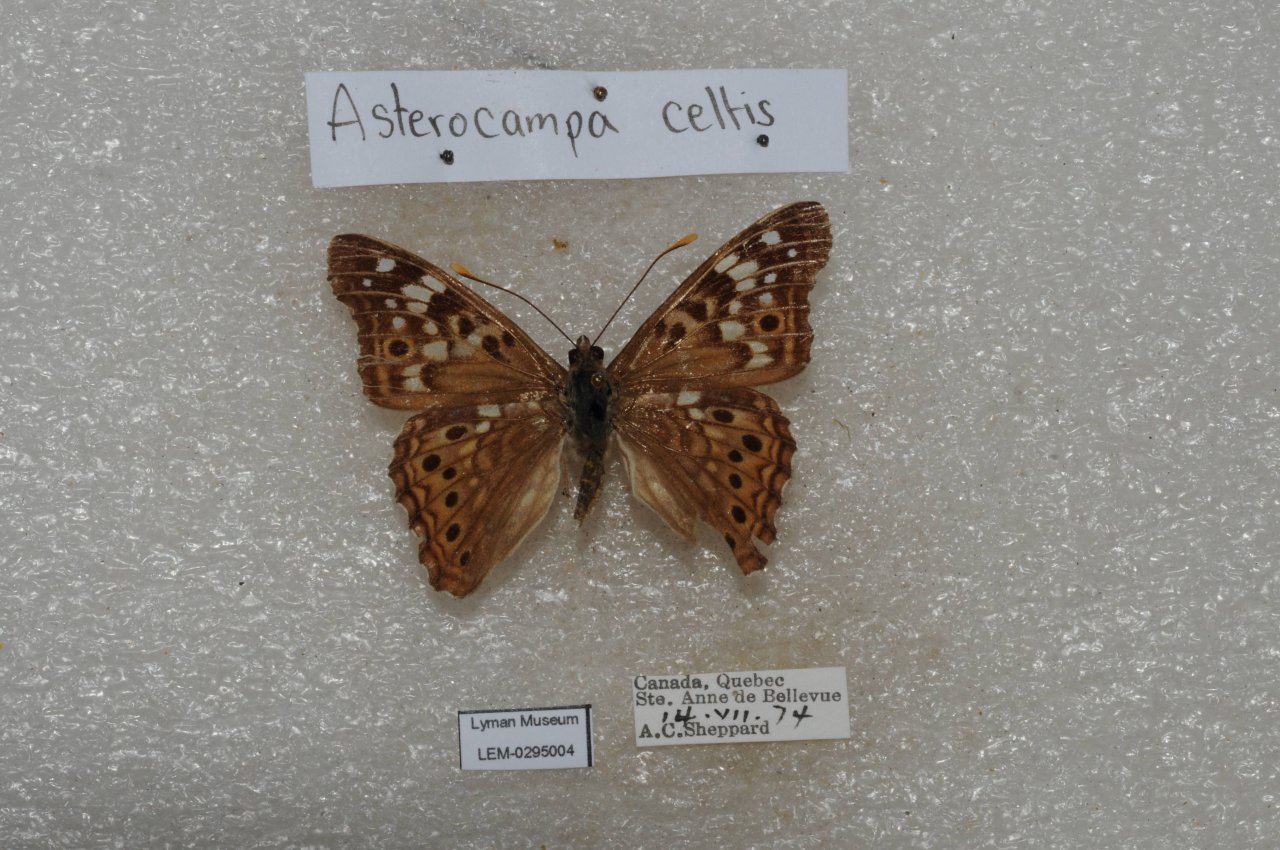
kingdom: Animalia
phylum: Arthropoda
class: Insecta
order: Lepidoptera
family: Nymphalidae
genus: Asterocampa
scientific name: Asterocampa celtis
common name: Hackberry Emperor
